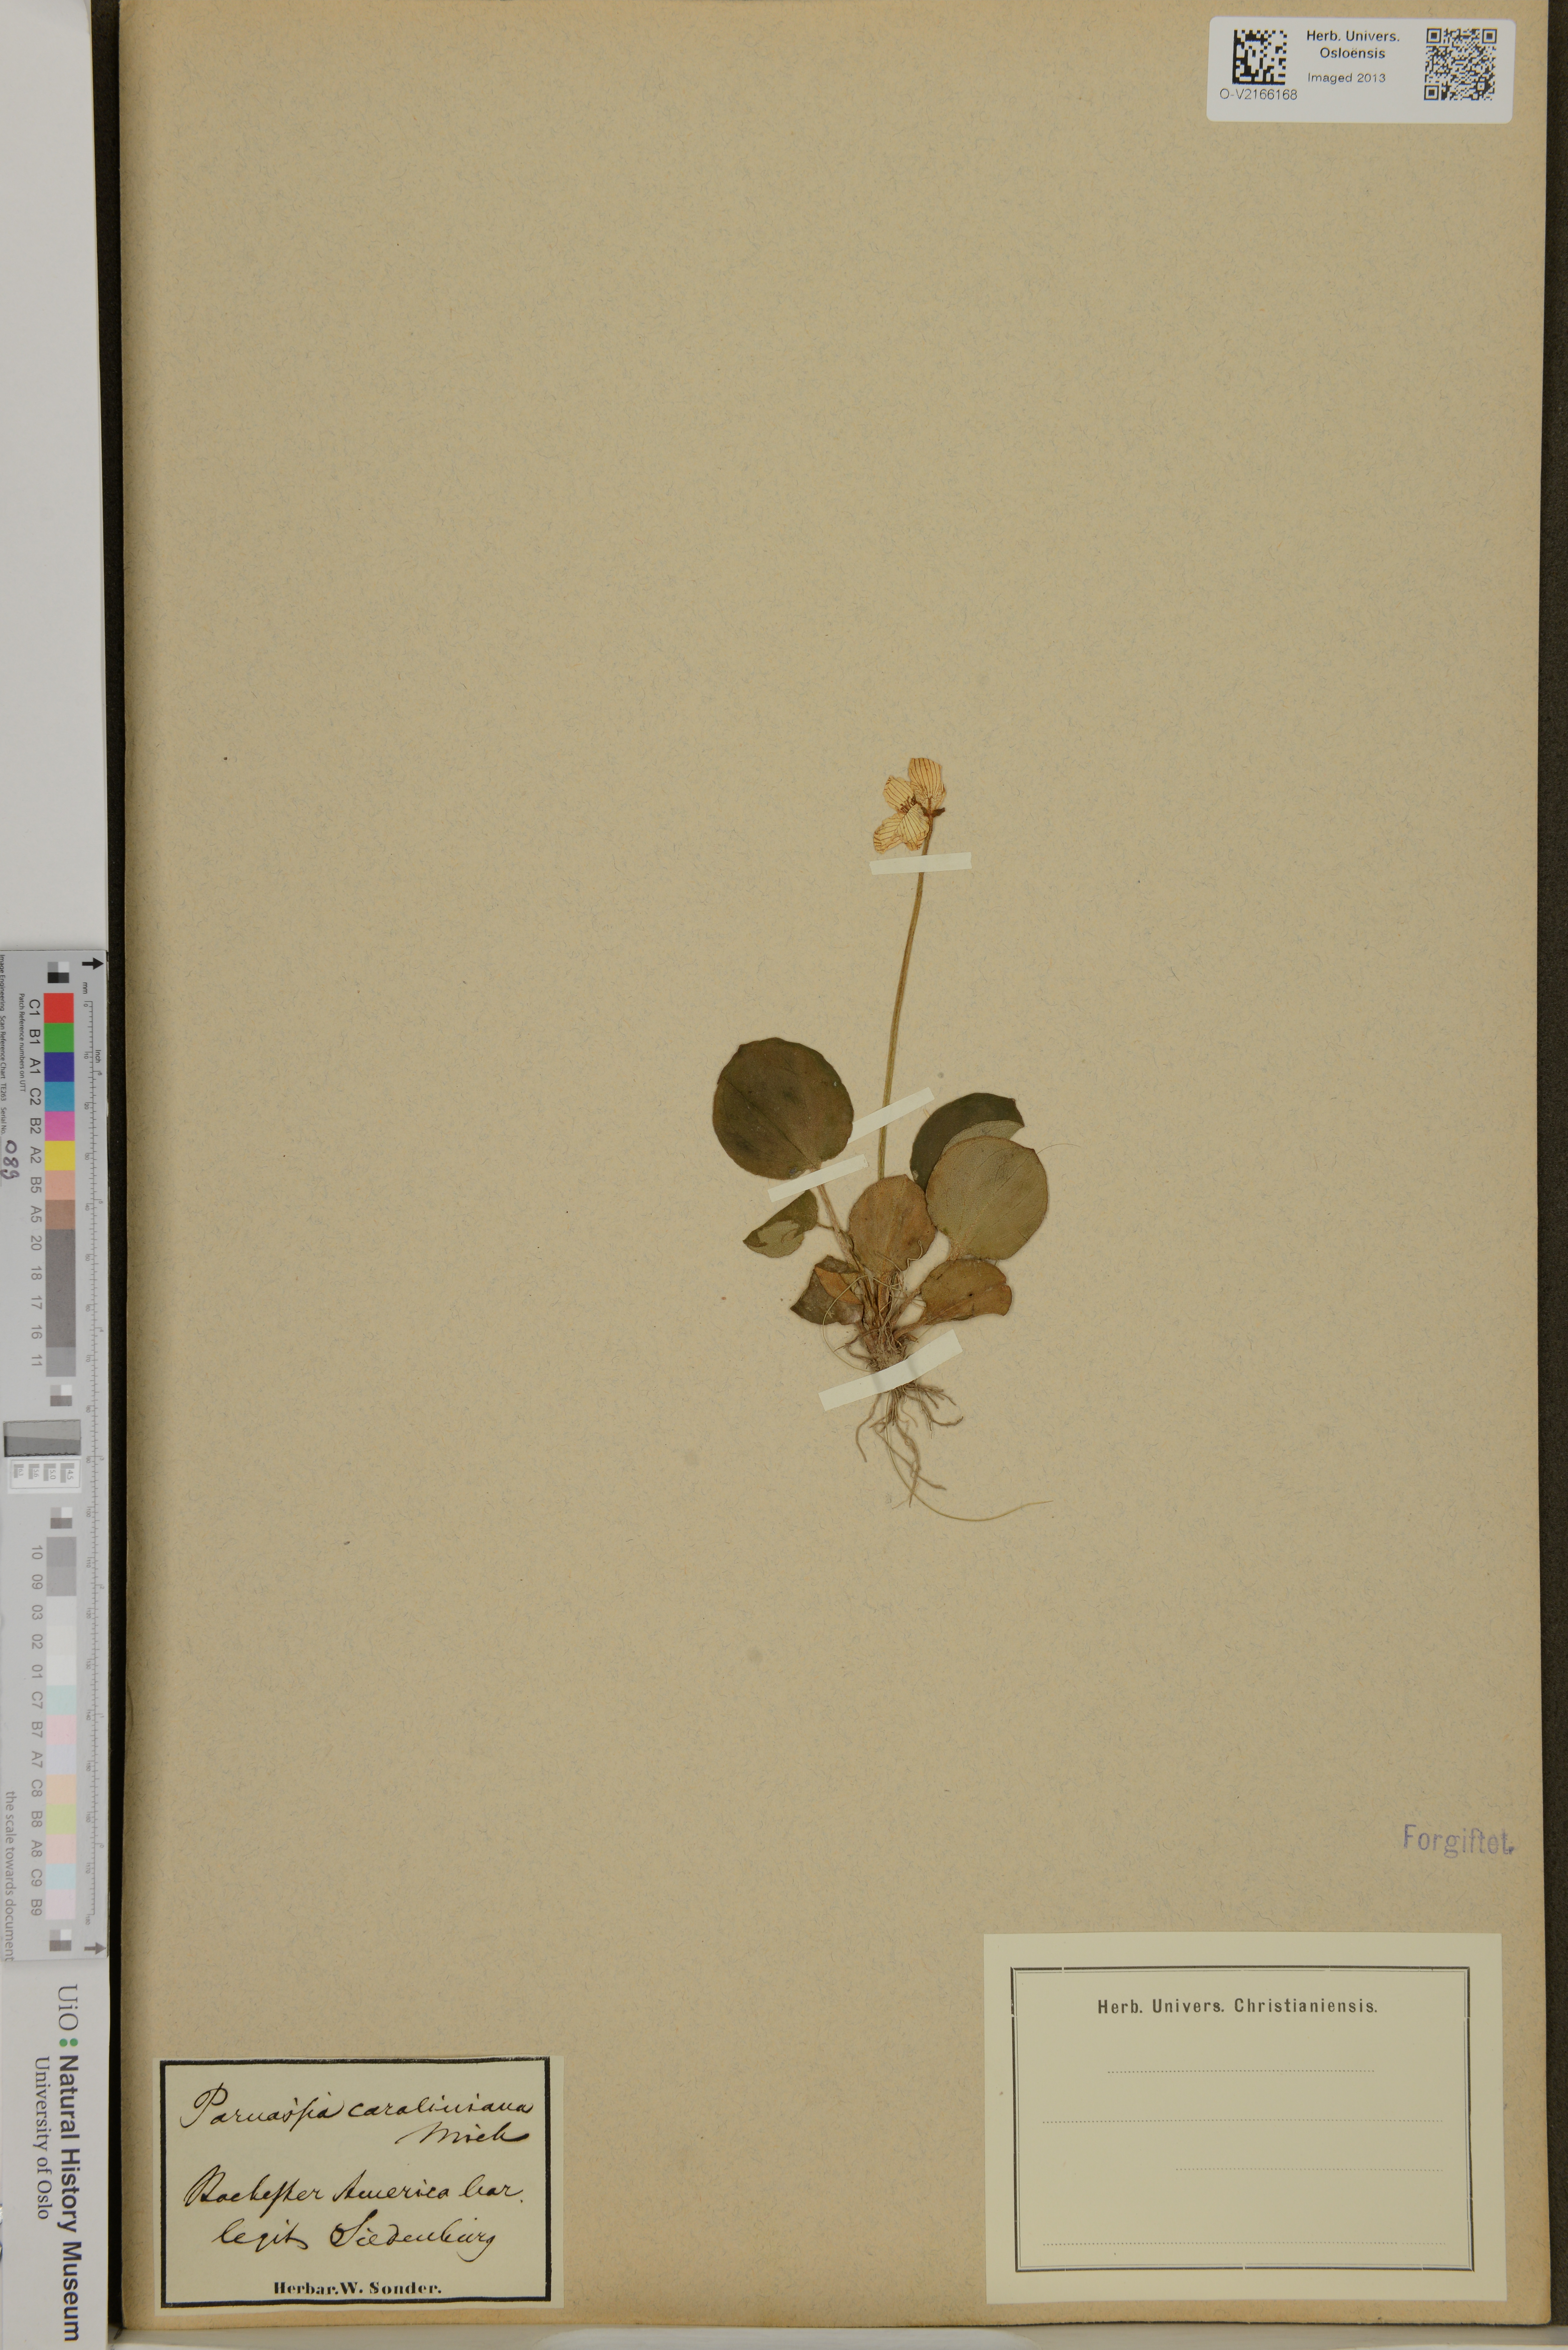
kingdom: Plantae
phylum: Tracheophyta
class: Magnoliopsida
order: Celastrales
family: Parnassiaceae
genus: Parnassia
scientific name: Parnassia caroliniana
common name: Carolina grass of parnassus
